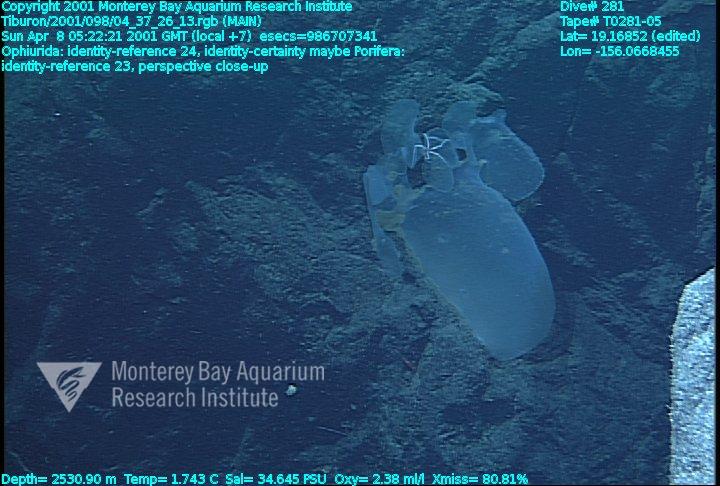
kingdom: Animalia
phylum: Porifera
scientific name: Porifera
